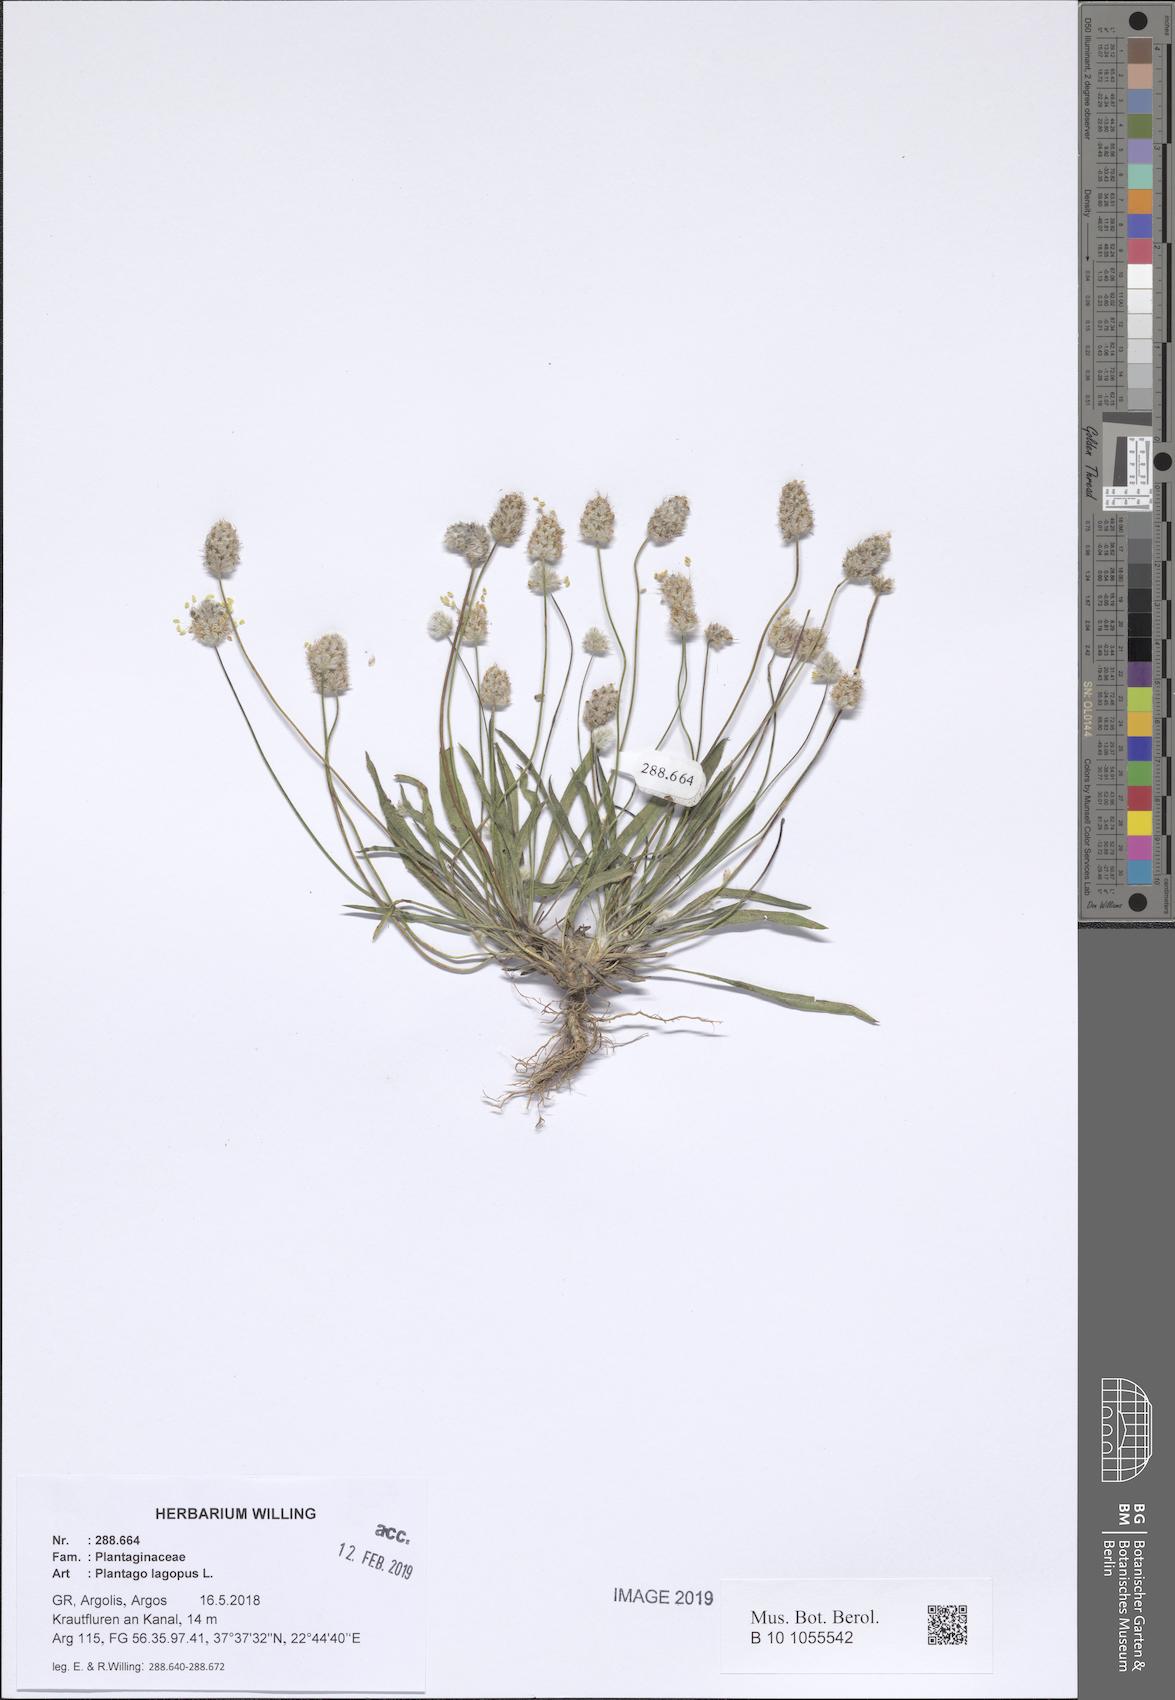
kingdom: Plantae
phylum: Tracheophyta
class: Magnoliopsida
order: Lamiales
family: Plantaginaceae
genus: Plantago
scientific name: Plantago lagopus
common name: Hare-foot plantain
